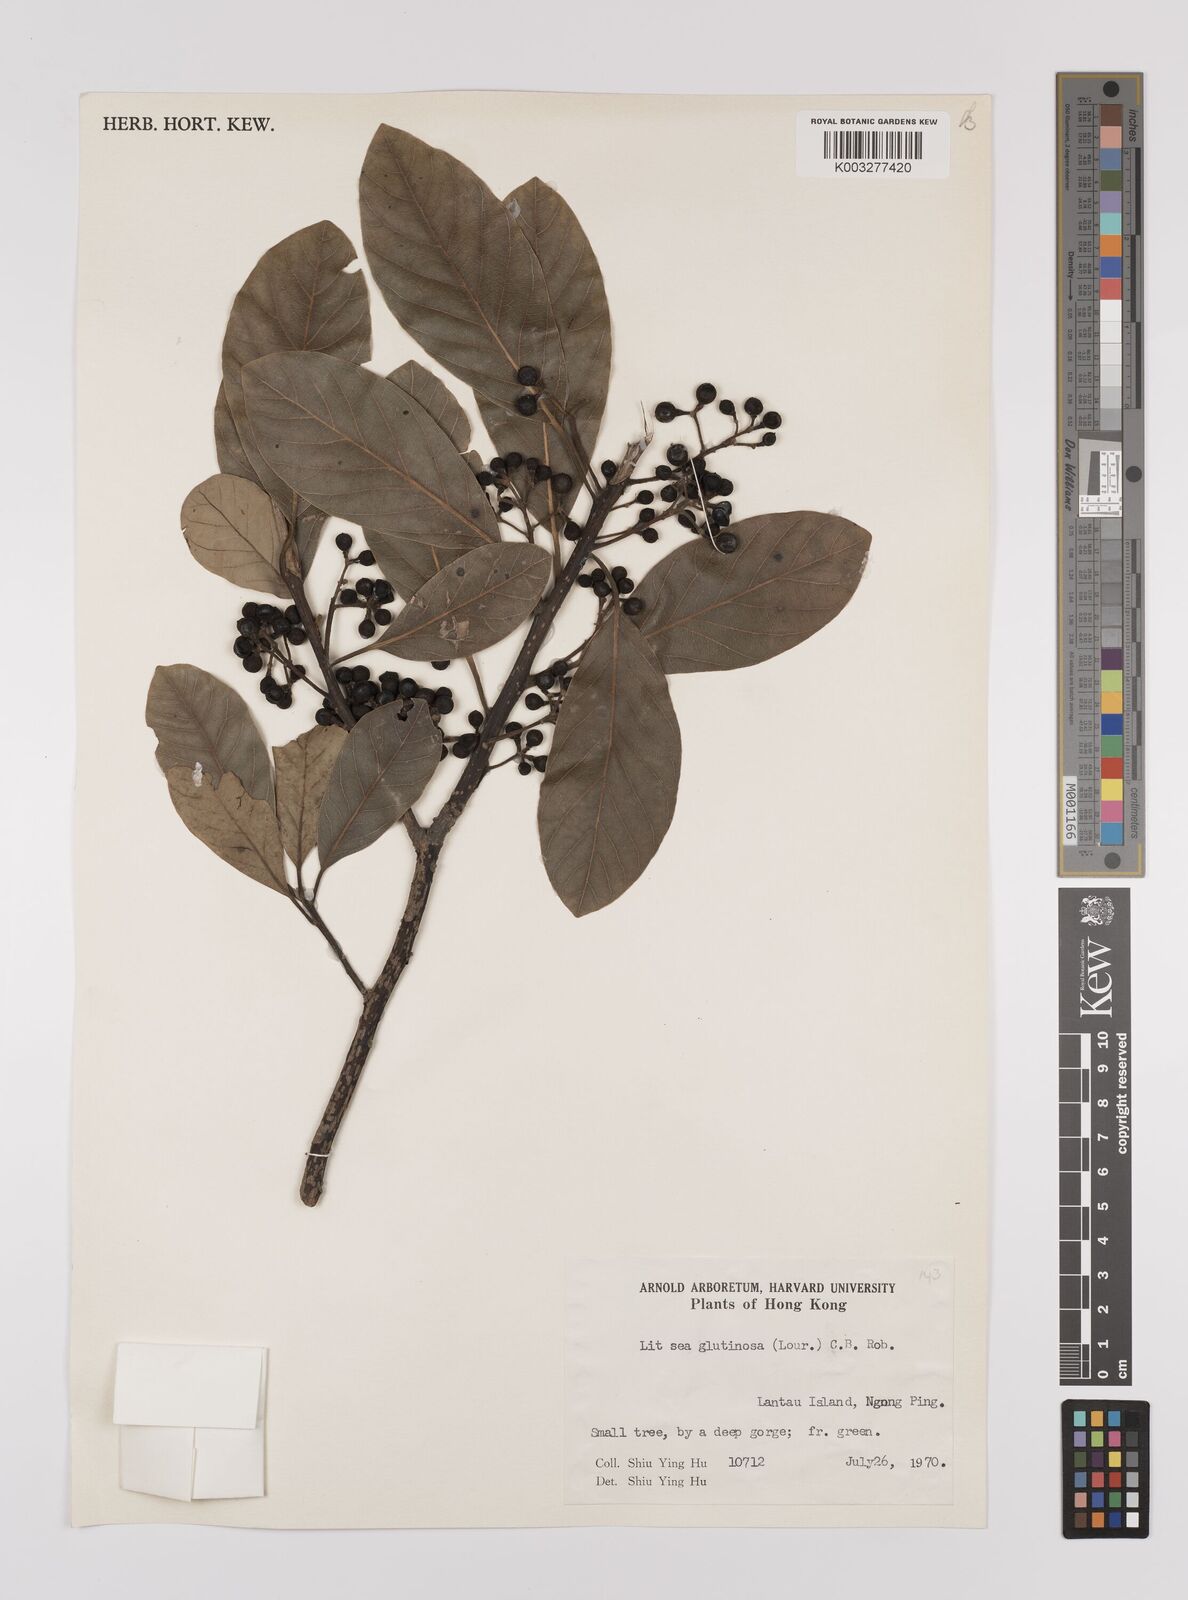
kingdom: Plantae
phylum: Tracheophyta
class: Magnoliopsida
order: Laurales
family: Lauraceae
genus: Litsea
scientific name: Litsea glutinosa
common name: Indian-laurel
